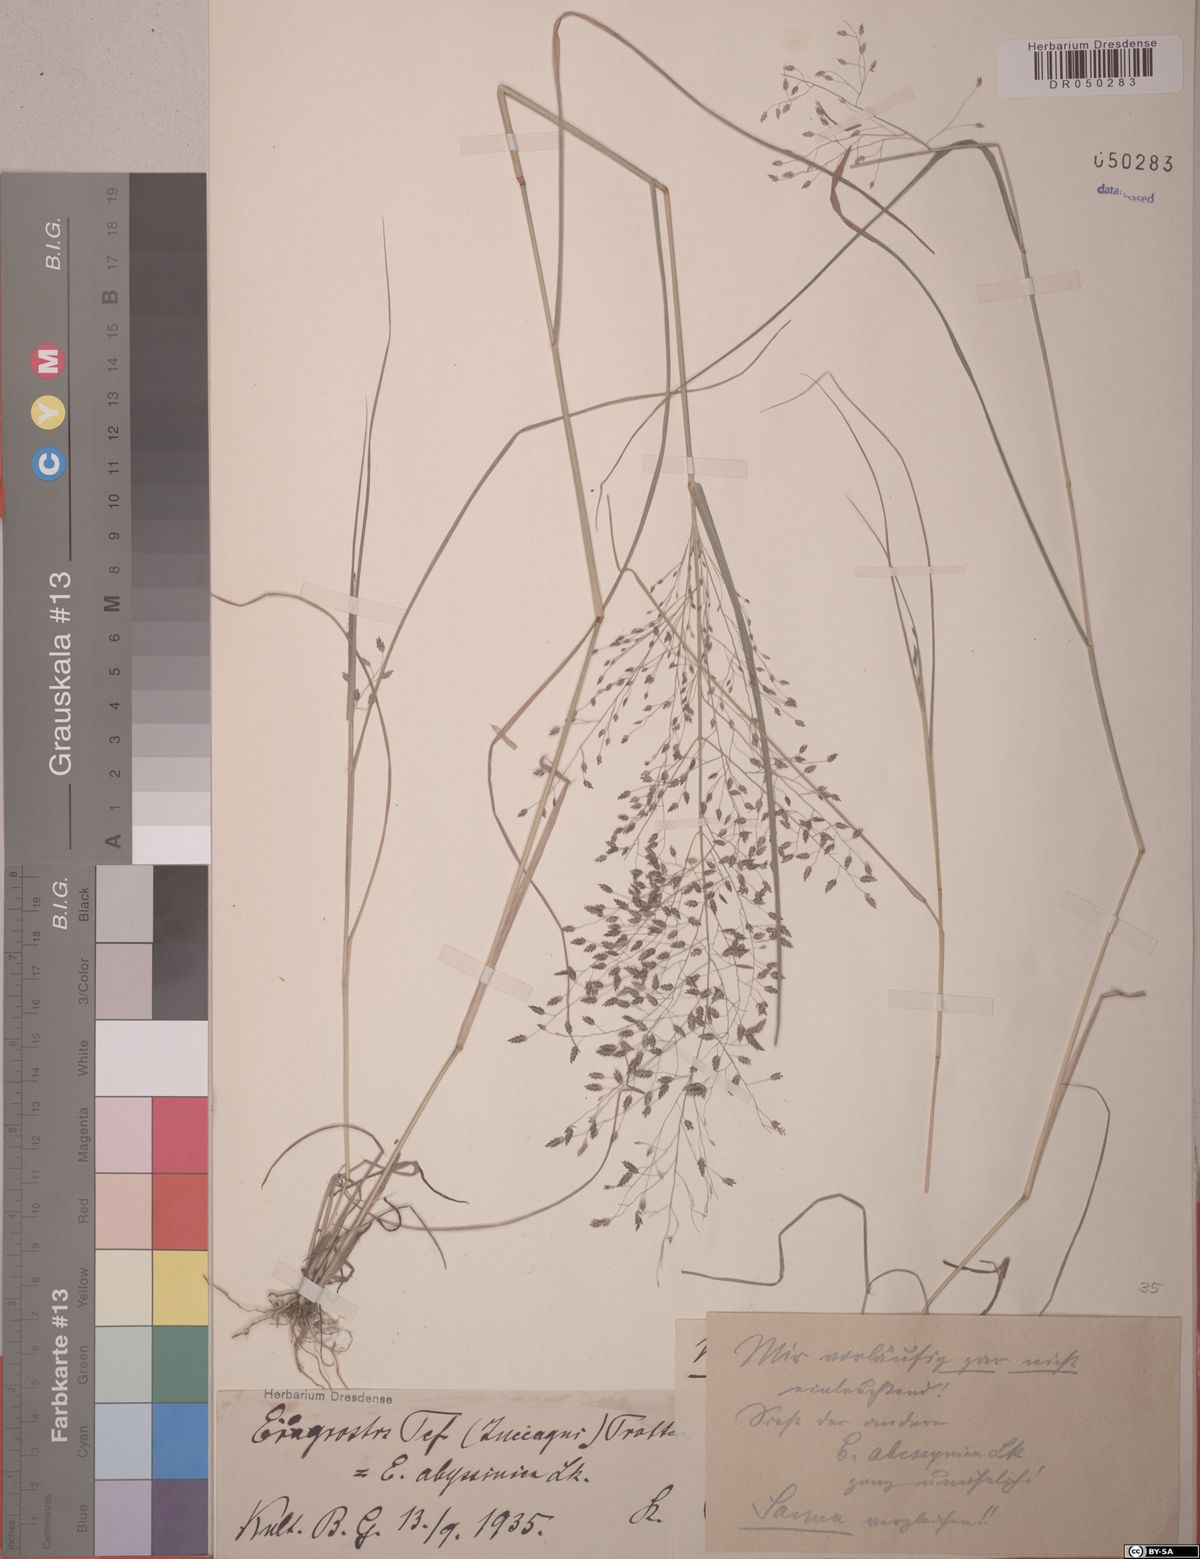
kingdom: Plantae
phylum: Tracheophyta
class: Liliopsida
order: Poales
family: Poaceae
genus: Eragrostis
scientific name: Eragrostis tef
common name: Teff
